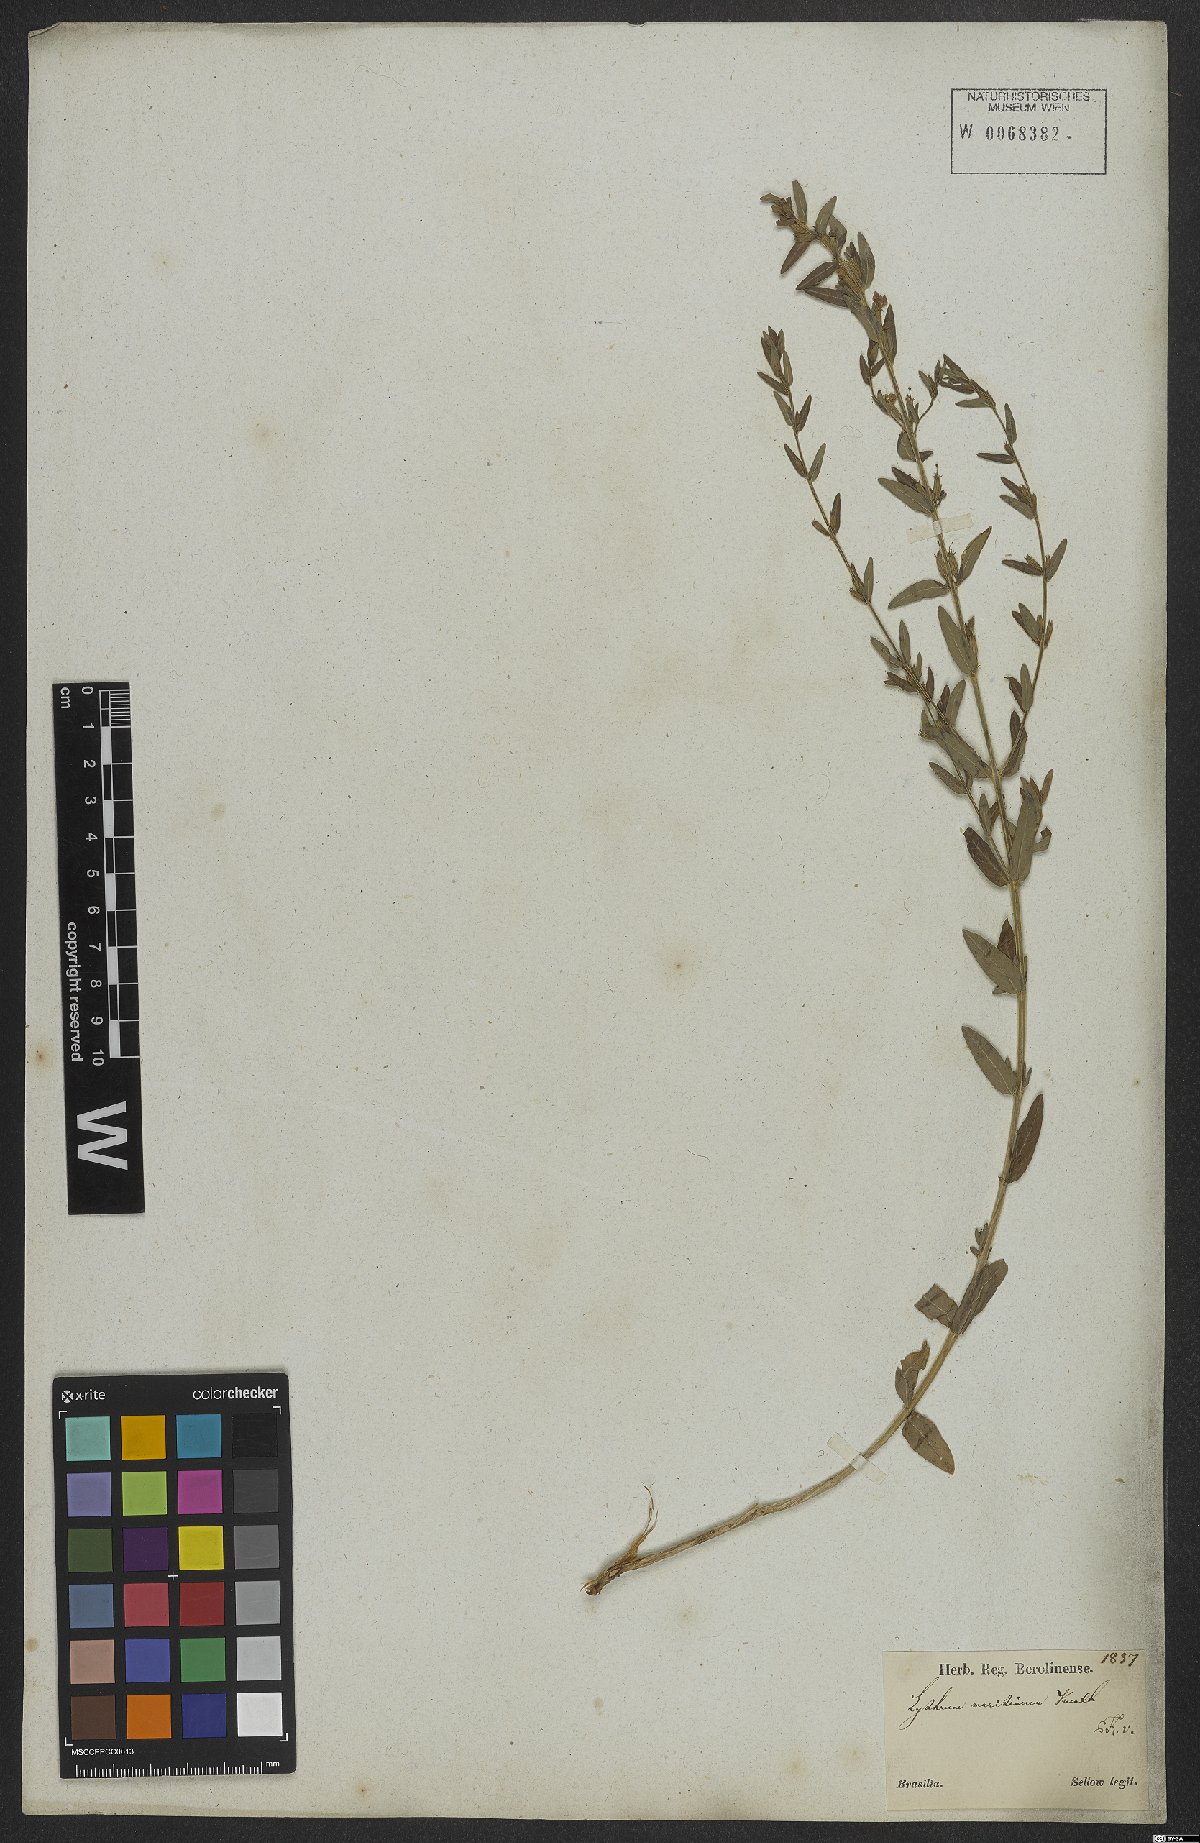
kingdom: Plantae
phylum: Tracheophyta
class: Magnoliopsida
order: Myrtales
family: Lythraceae
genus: Lythrum
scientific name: Lythrum maritimum
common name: Pukamole
